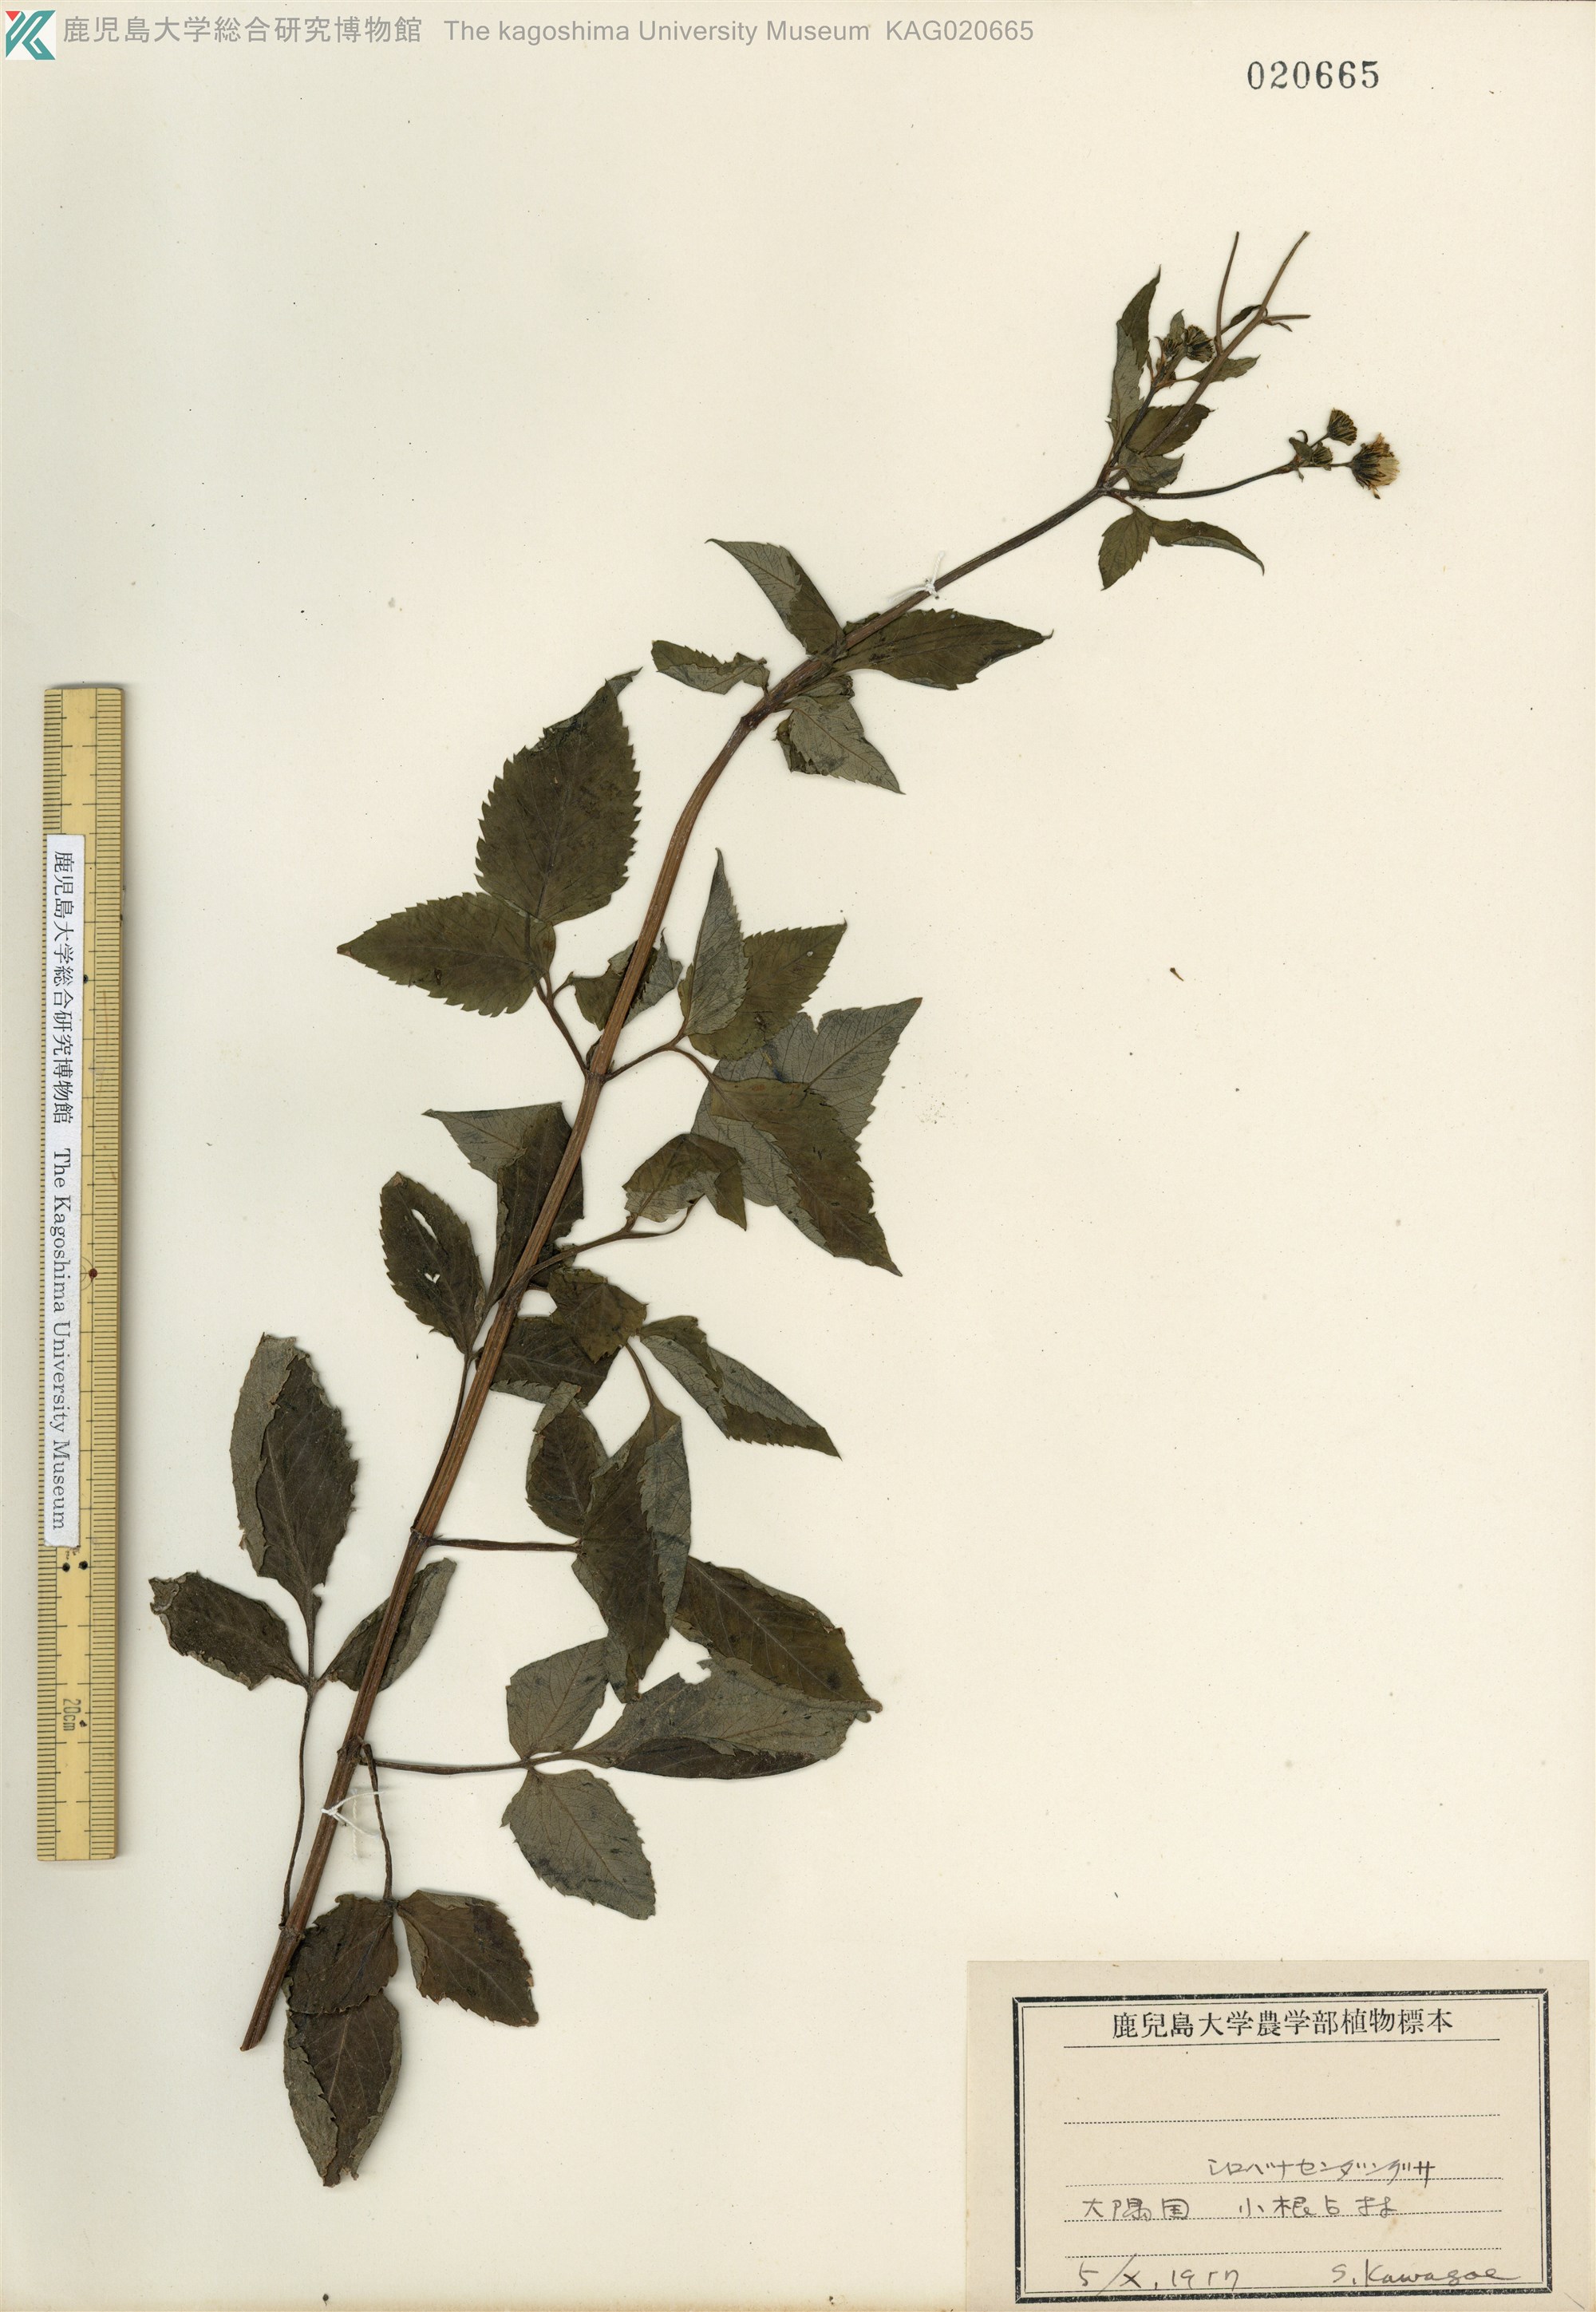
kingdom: Plantae
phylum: Tracheophyta
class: Magnoliopsida
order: Asterales
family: Asteraceae
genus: Bidens
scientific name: Bidens pilosa
